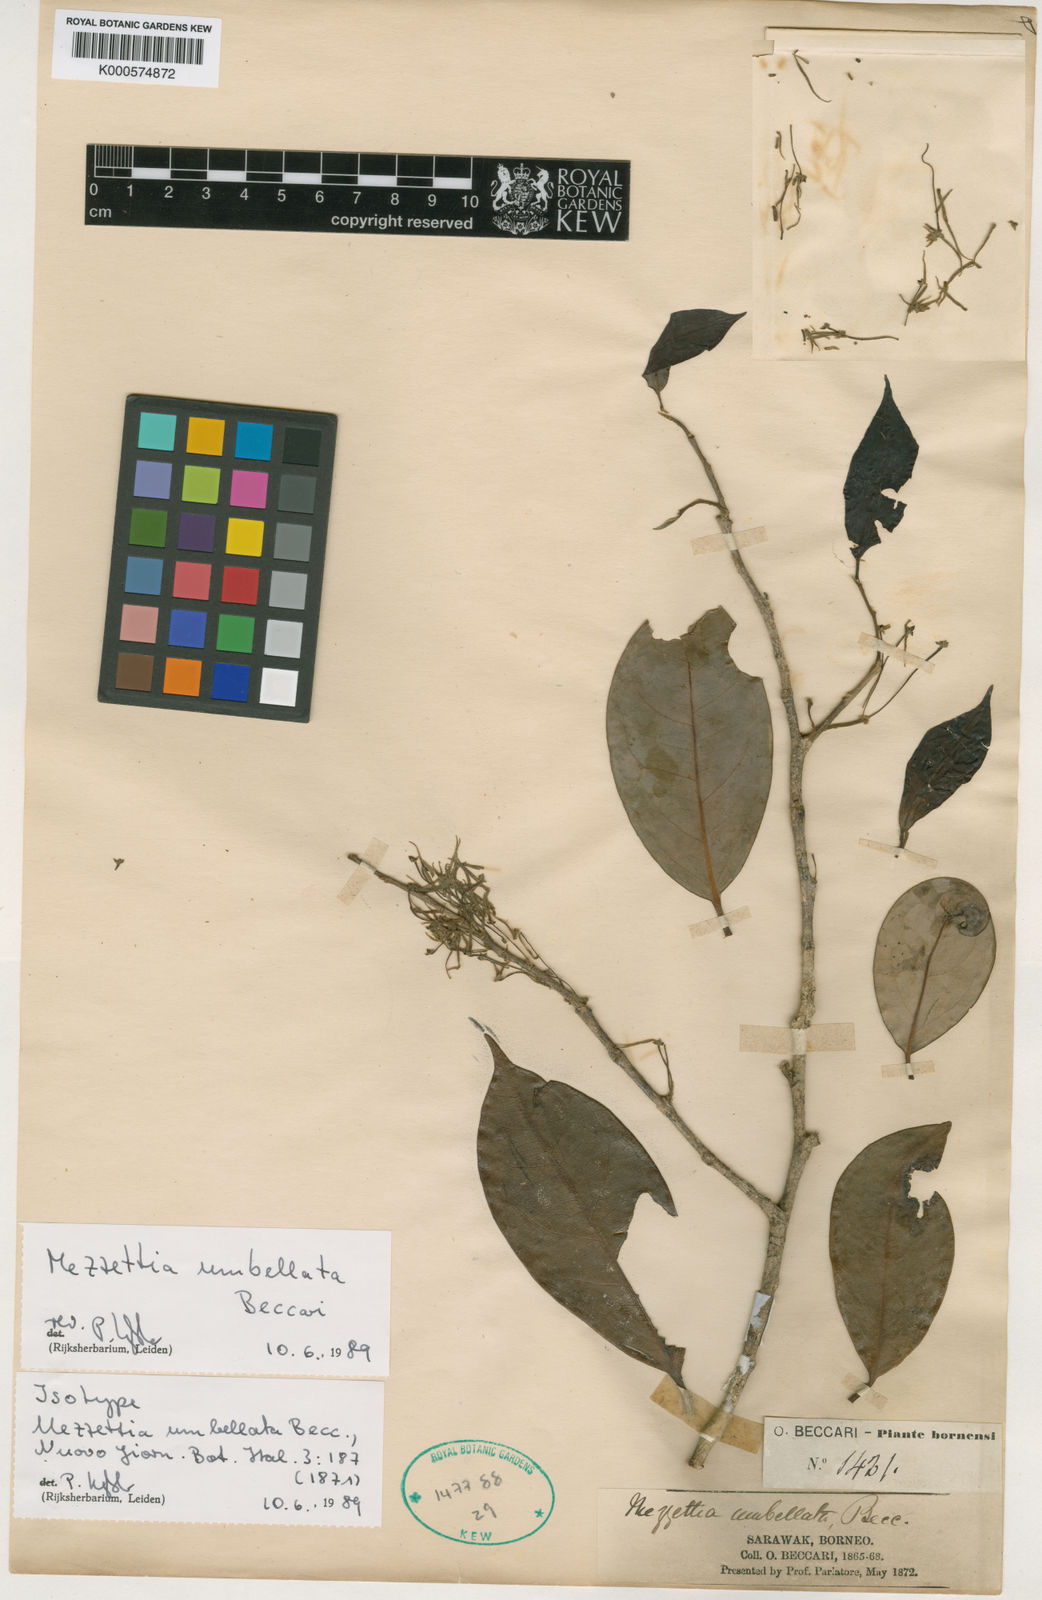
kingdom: Plantae
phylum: Tracheophyta
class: Magnoliopsida
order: Magnoliales
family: Annonaceae
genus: Mezzettia
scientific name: Mezzettia umbellata
